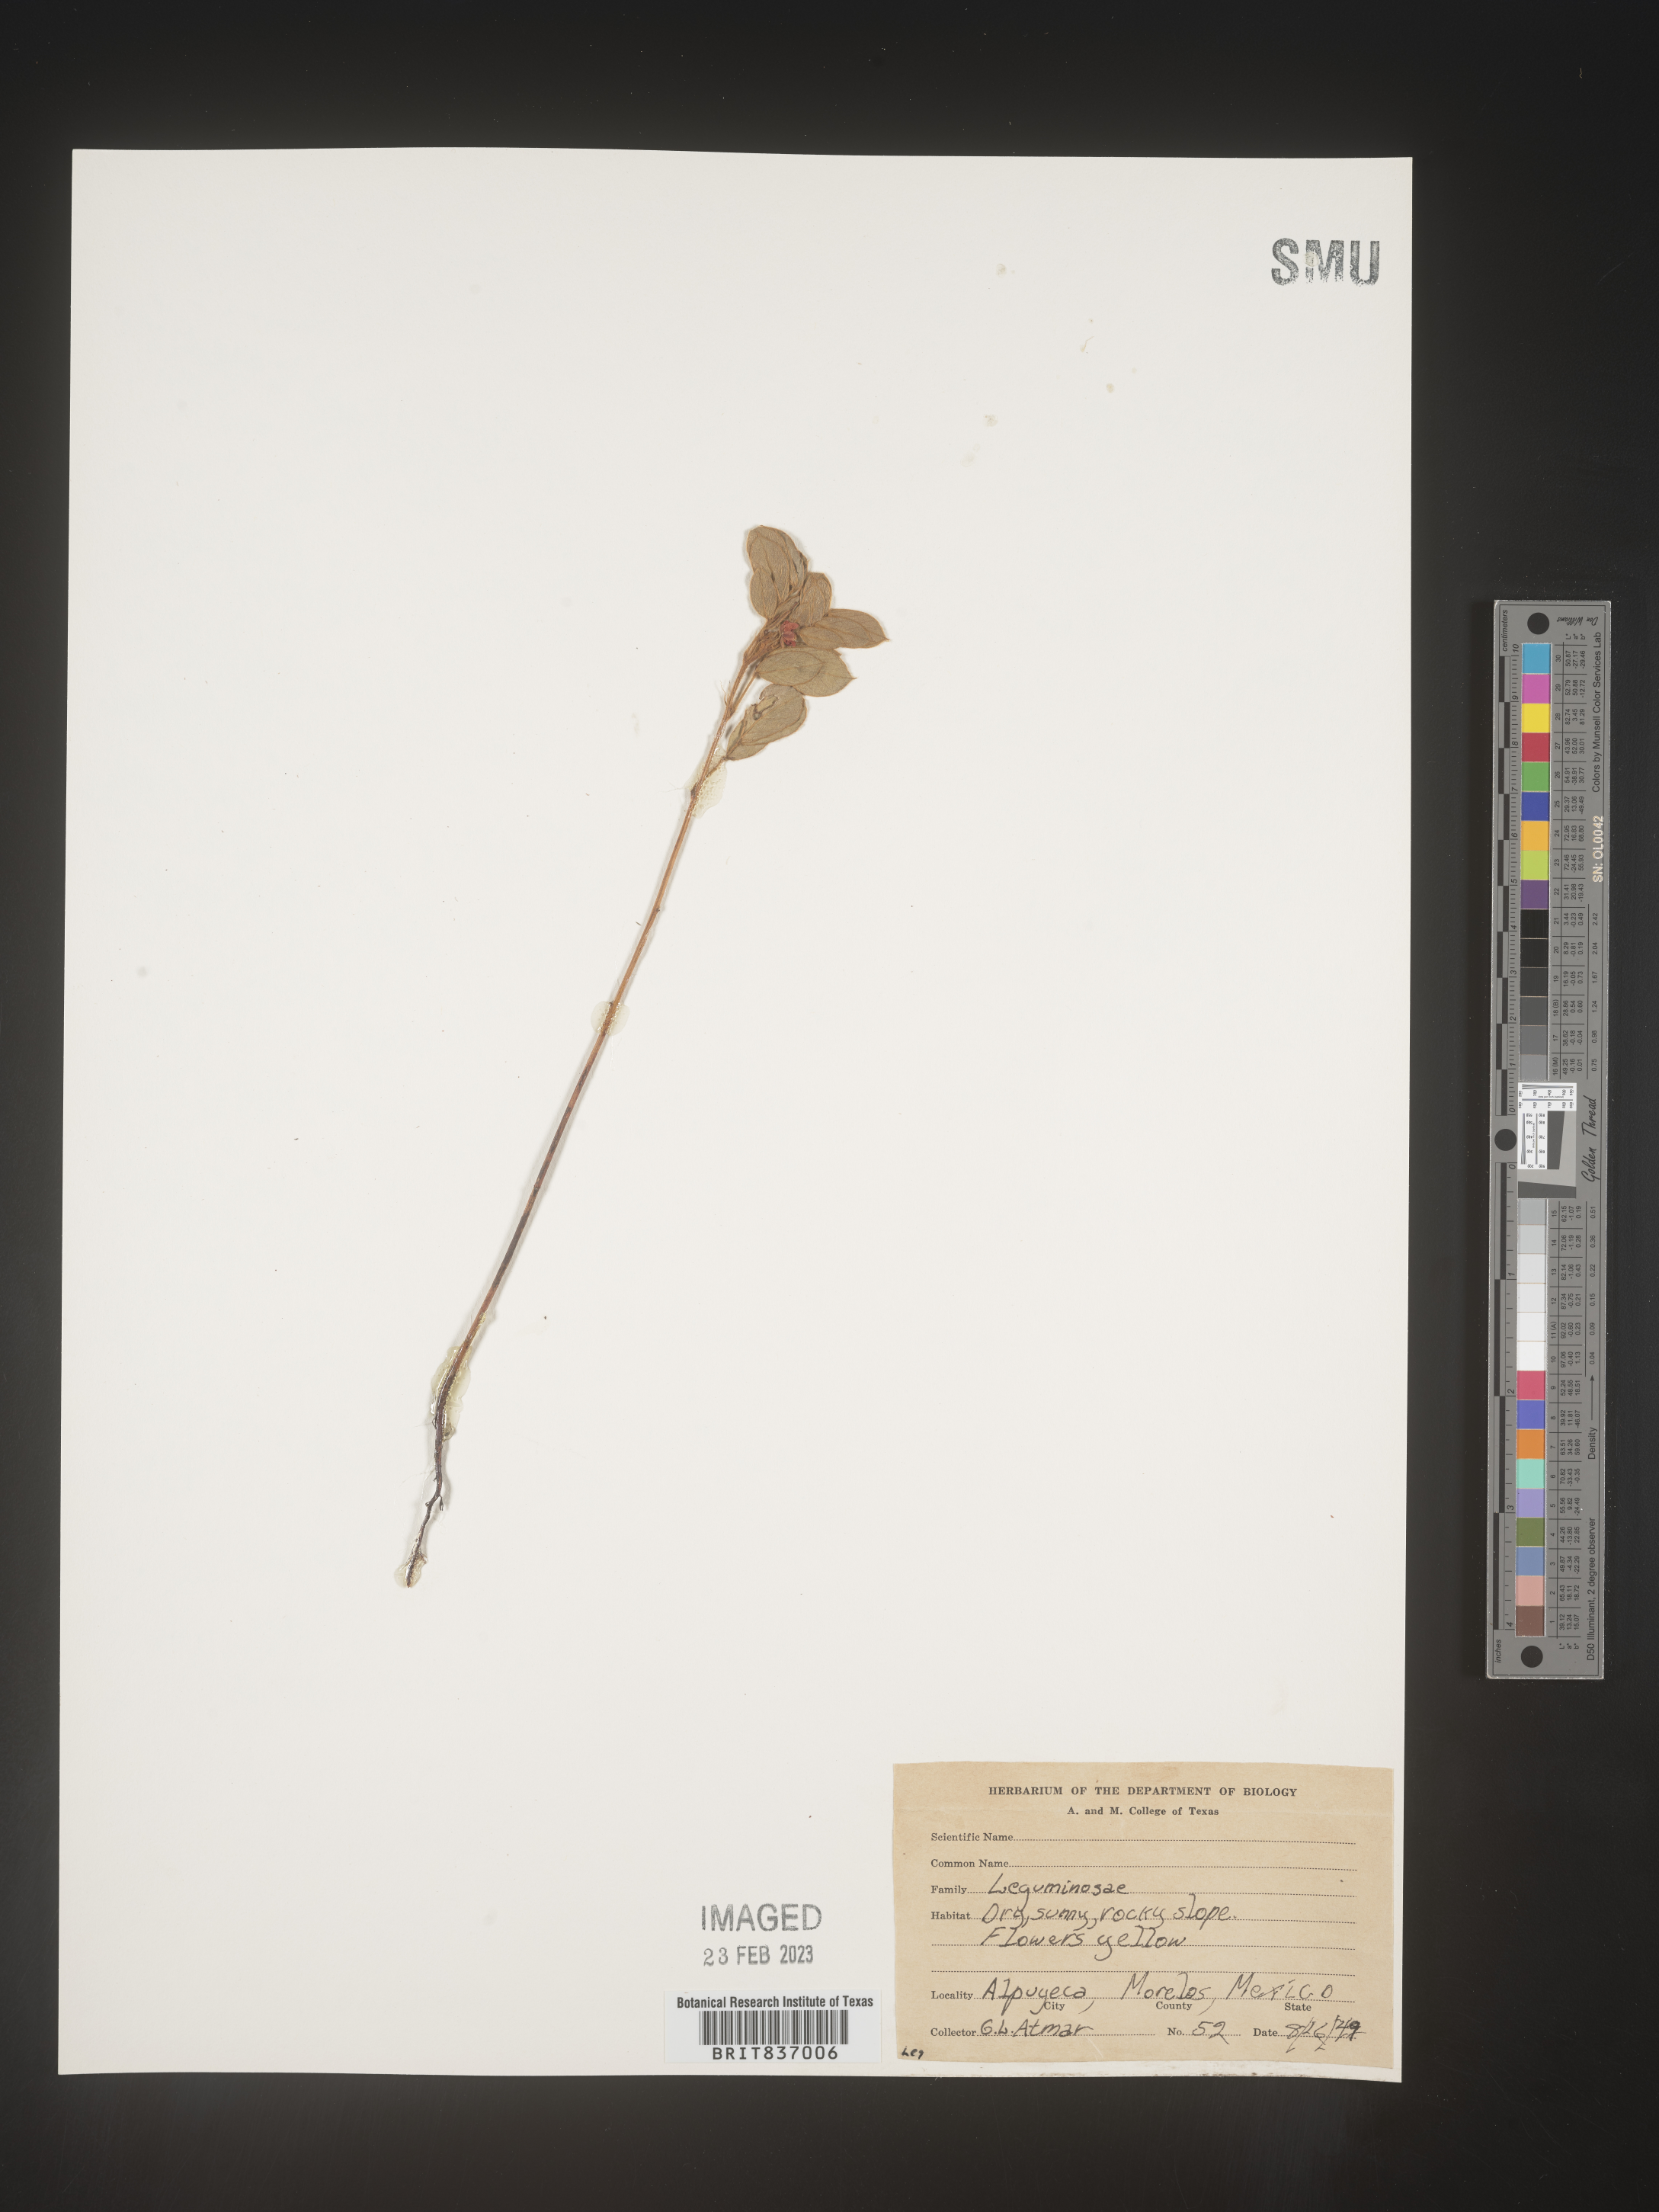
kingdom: Plantae
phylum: Tracheophyta
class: Magnoliopsida
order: Fabales
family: Fabaceae
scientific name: Fabaceae
